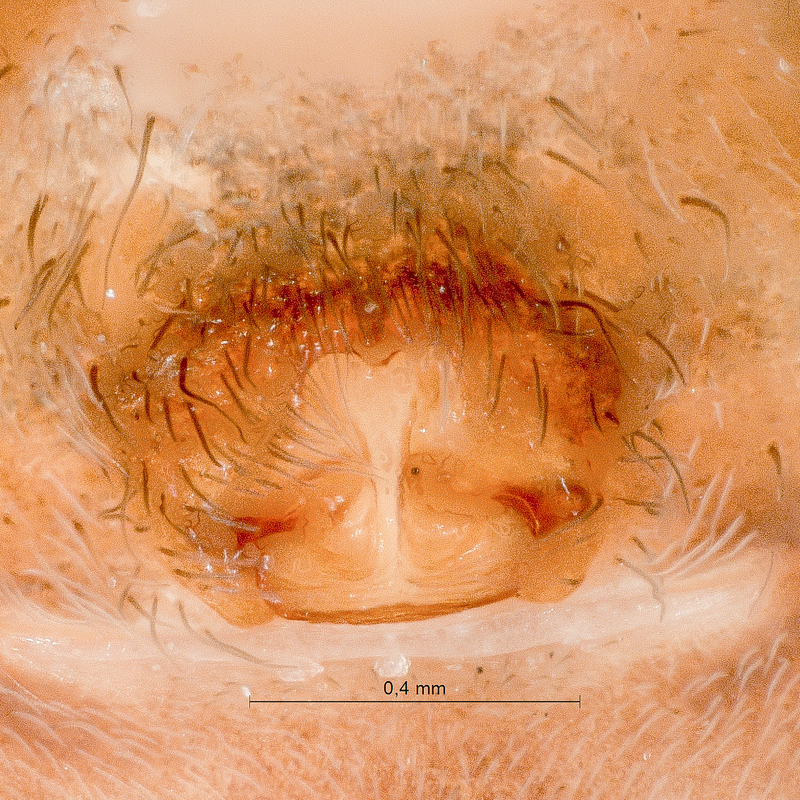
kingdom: Animalia
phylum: Arthropoda
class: Arachnida
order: Araneae
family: Lycosidae
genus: Pardosa
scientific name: Pardosa lugubris
